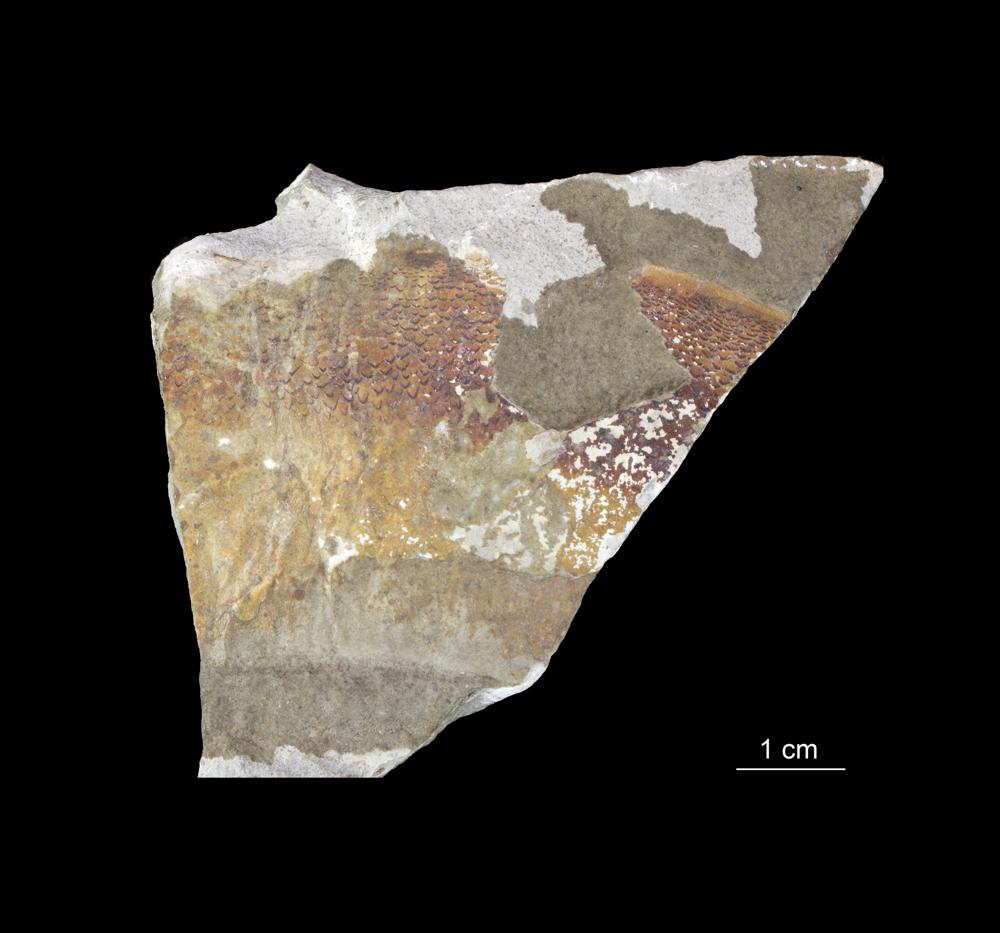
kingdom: Animalia
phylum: Chordata
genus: Pterygotus
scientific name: Pterygotus
